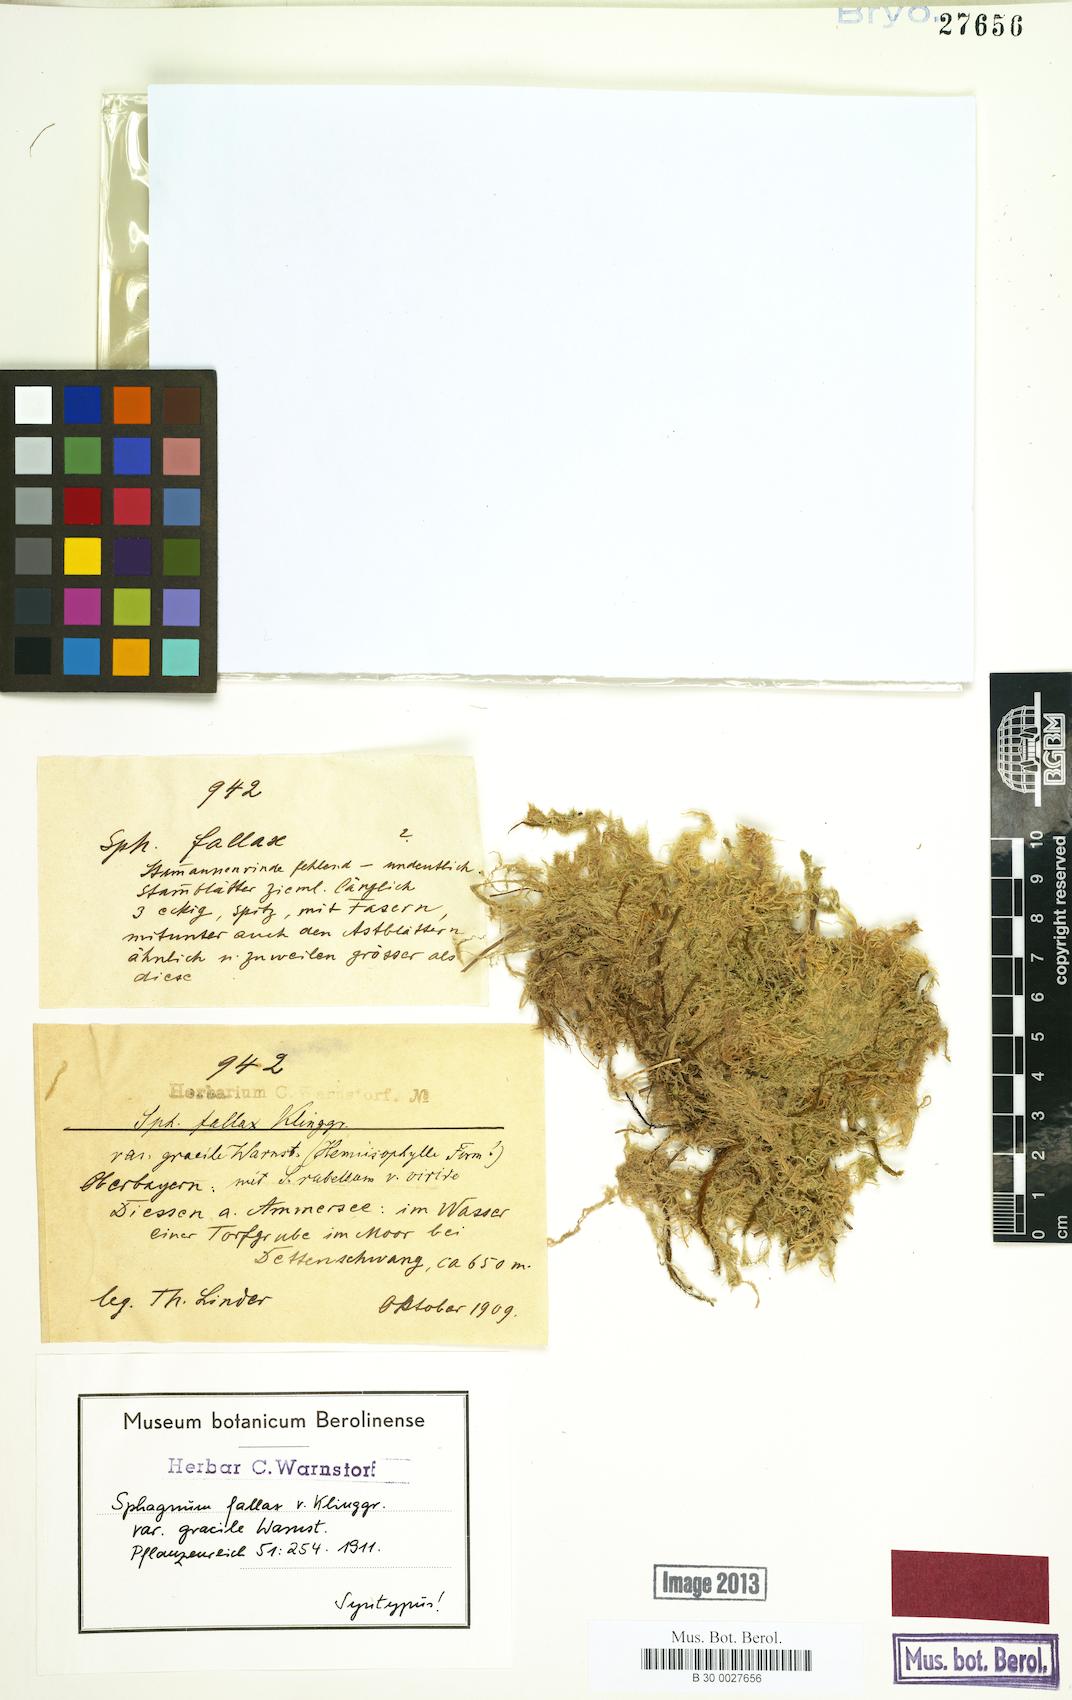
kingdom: Plantae
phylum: Bryophyta
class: Sphagnopsida
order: Sphagnales
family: Sphagnaceae
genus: Sphagnum
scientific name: Sphagnum fallax
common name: Flat-top peat moss
